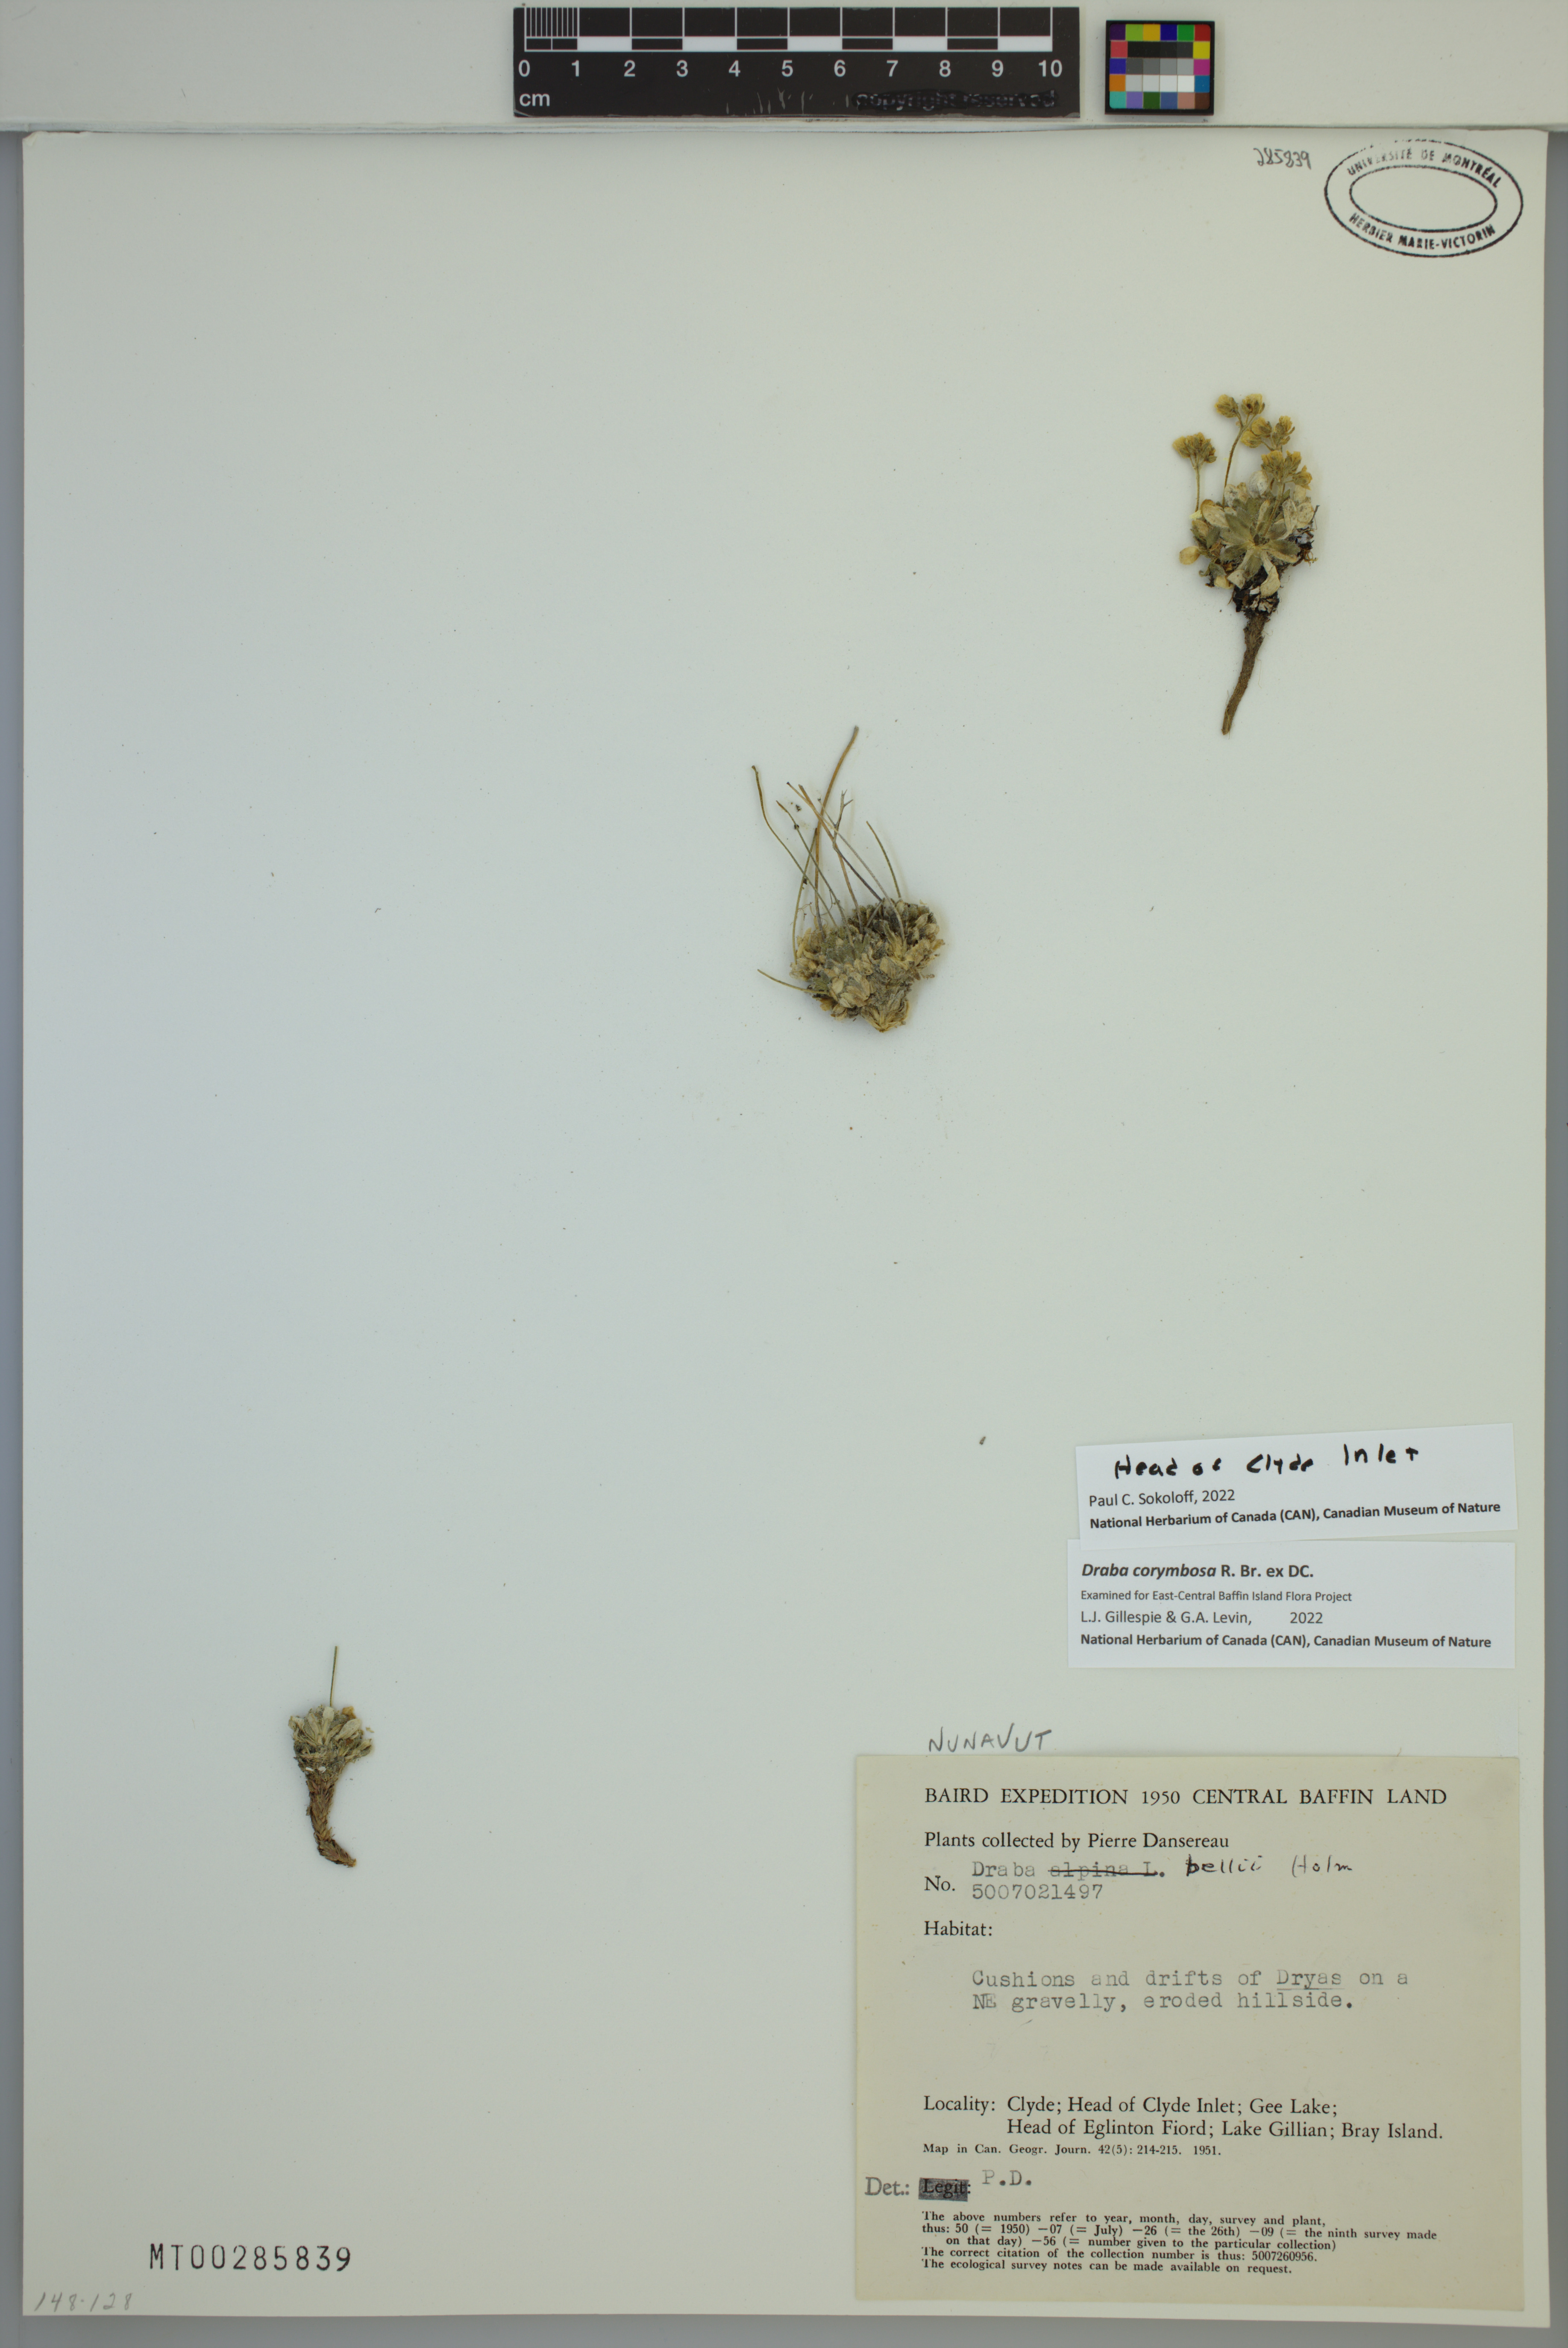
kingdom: Plantae
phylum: Tracheophyta
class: Magnoliopsida
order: Brassicales
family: Brassicaceae
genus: Draba
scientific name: Draba corymbosa
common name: Cushion whitlow-grass
